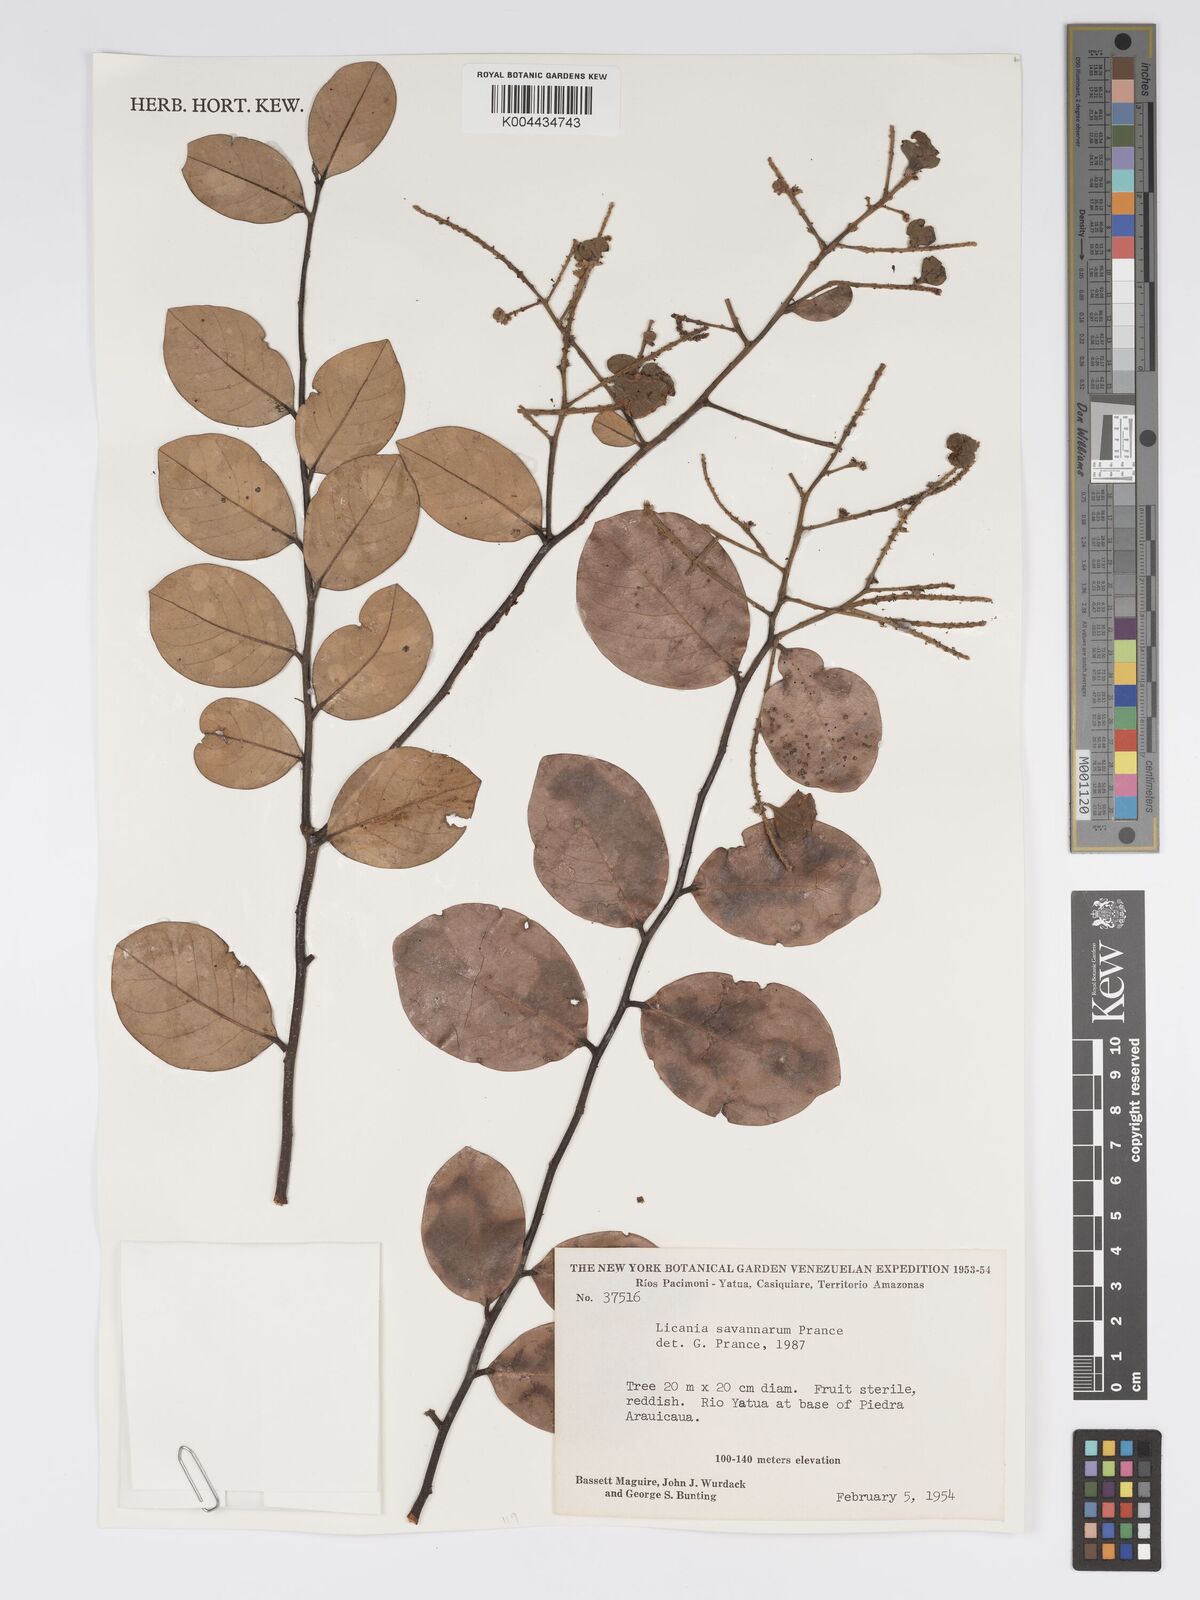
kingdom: Plantae
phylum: Tracheophyta
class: Magnoliopsida
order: Malpighiales
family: Chrysobalanaceae
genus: Licania
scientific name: Licania savannarum
